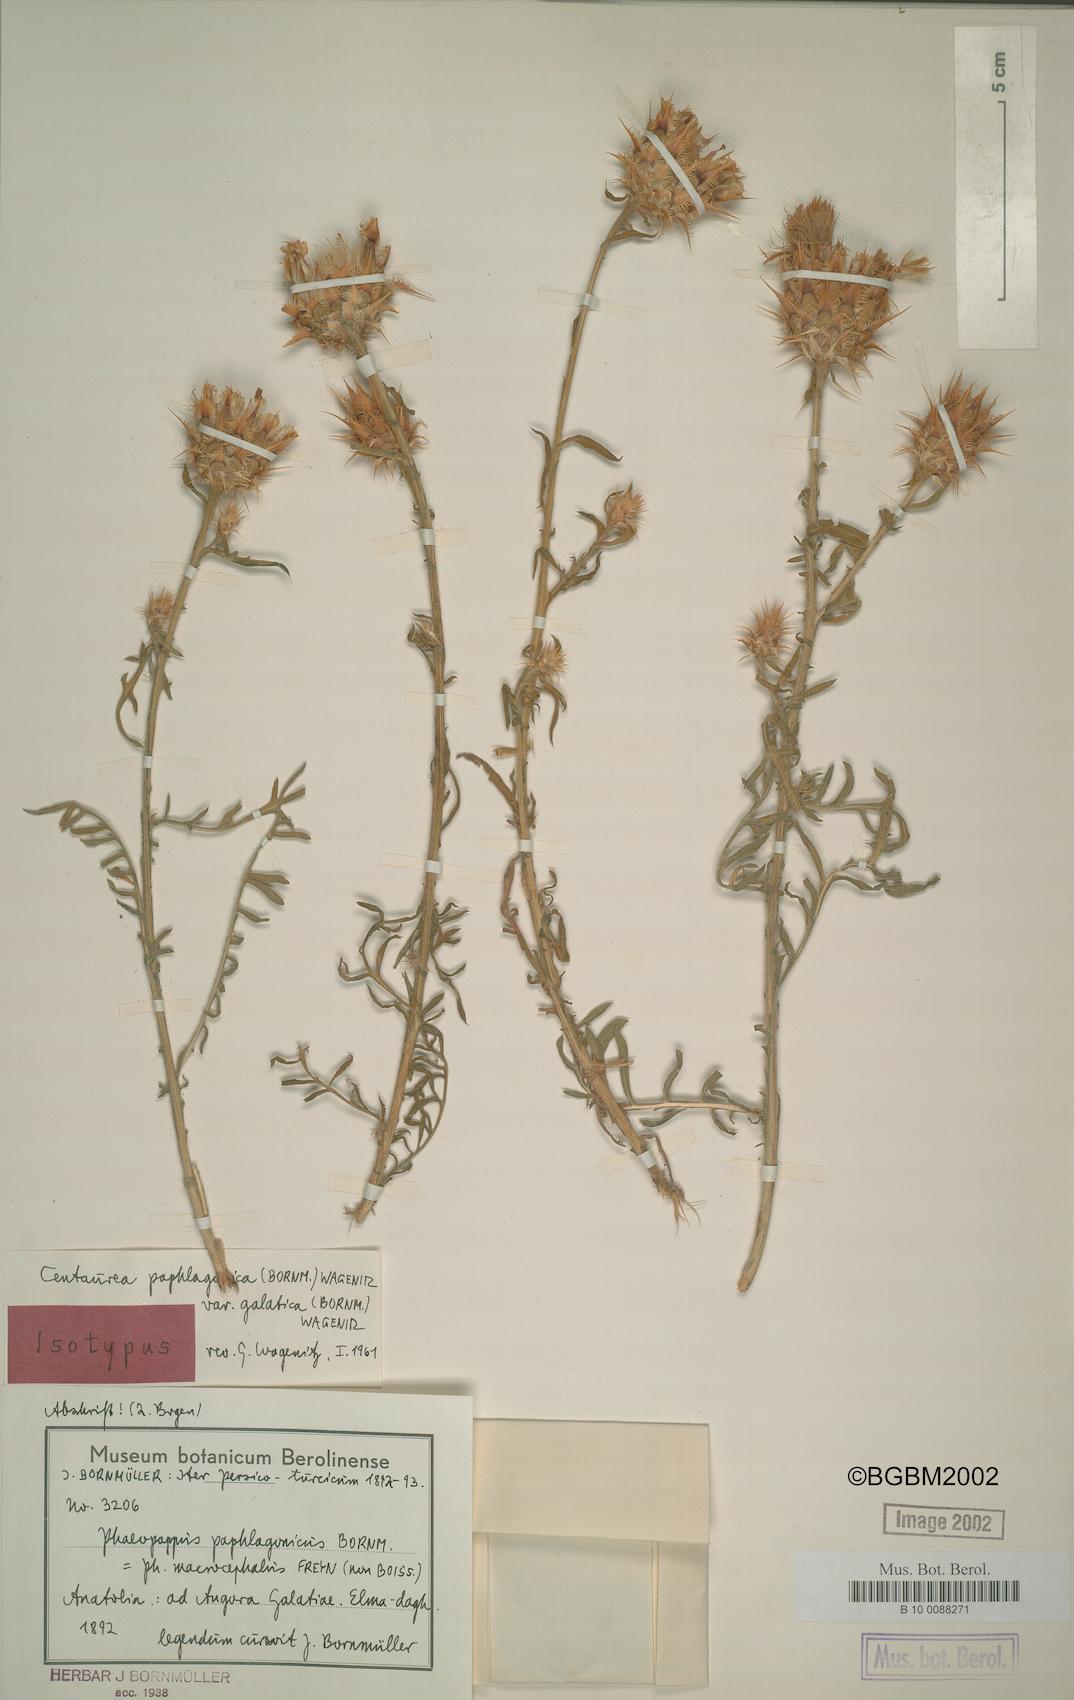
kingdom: Plantae
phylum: Tracheophyta
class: Magnoliopsida
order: Asterales
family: Asteraceae
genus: Centaurea
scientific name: Centaurea paphlagonica
